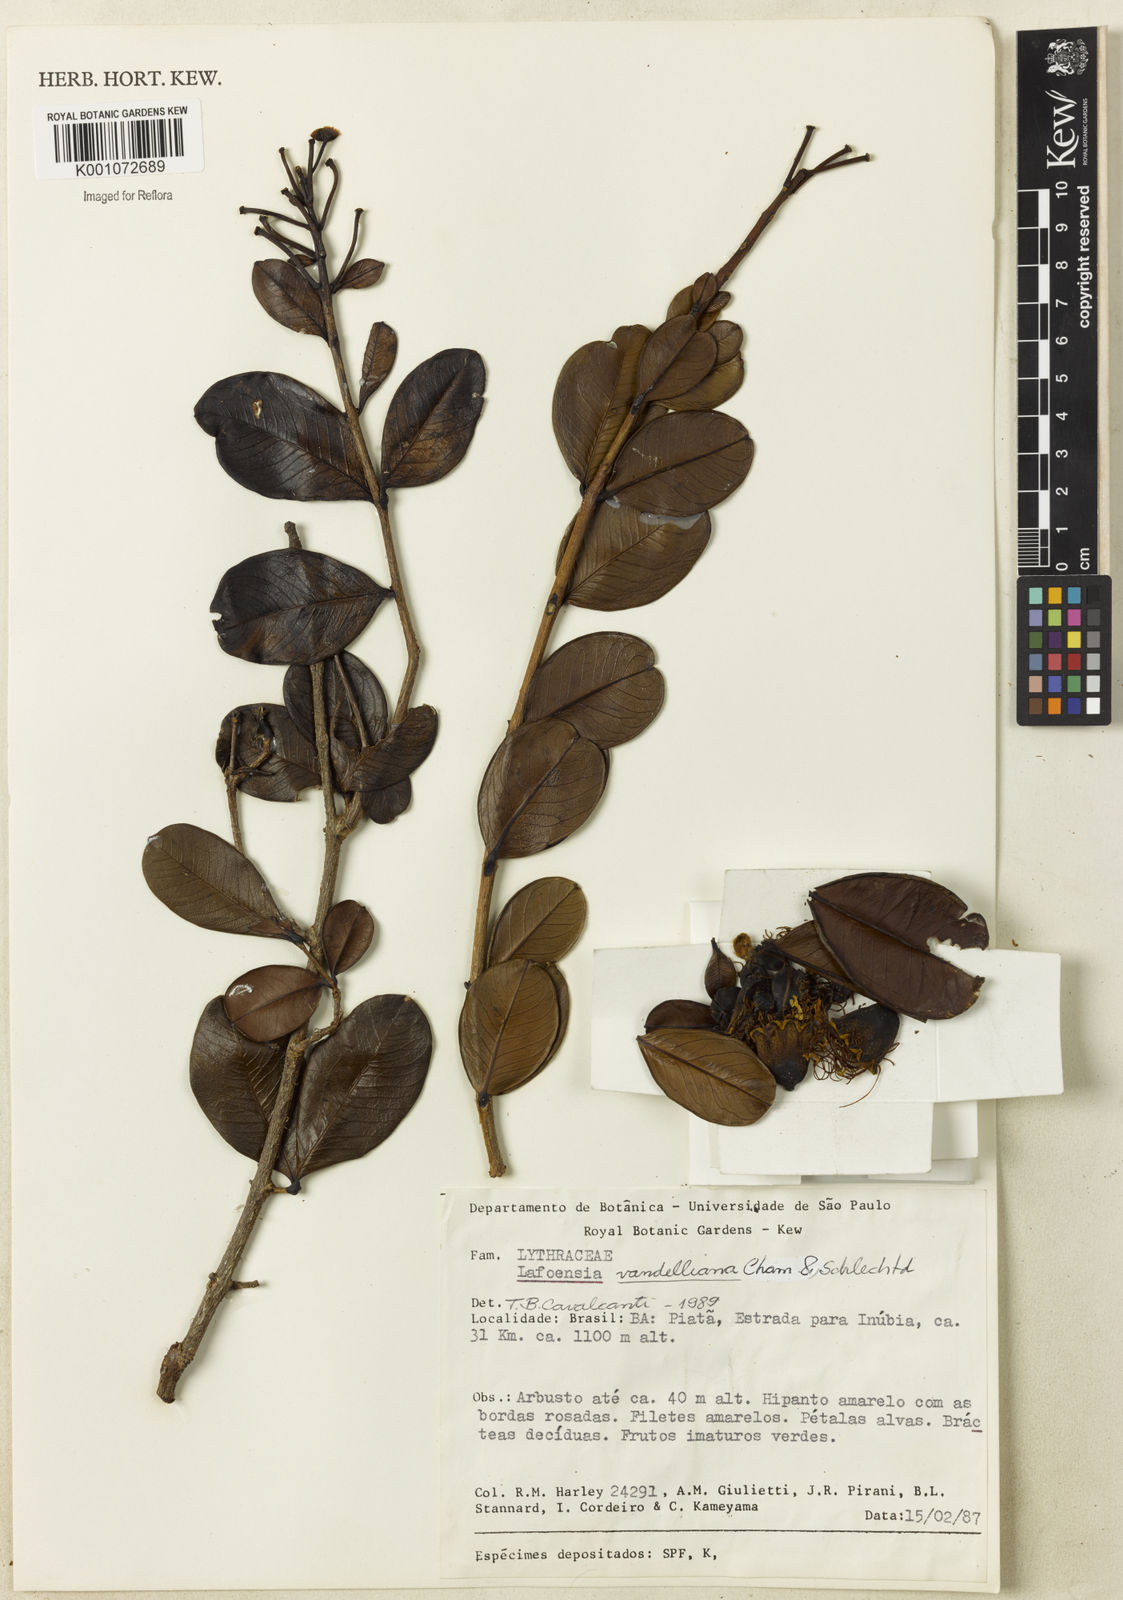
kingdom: Plantae
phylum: Tracheophyta
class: Magnoliopsida
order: Myrtales
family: Lythraceae
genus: Lafoensia
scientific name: Lafoensia vandelliana
